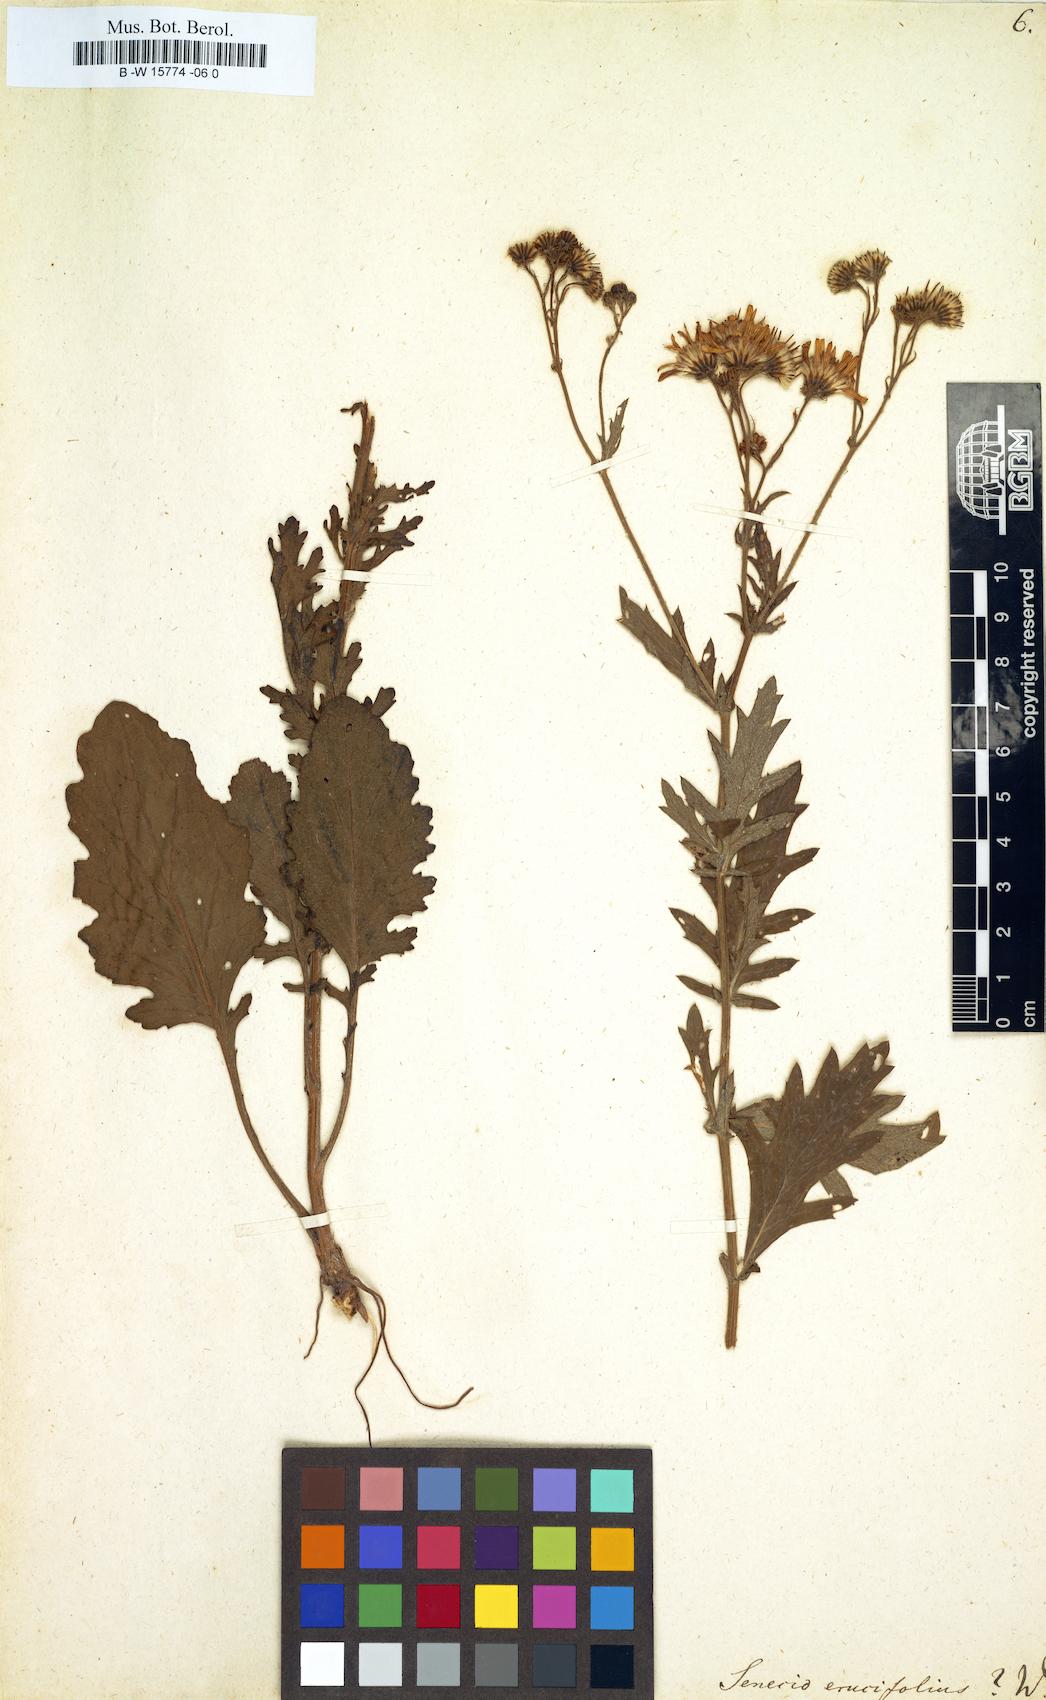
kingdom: Plantae
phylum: Tracheophyta
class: Magnoliopsida
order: Asterales
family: Asteraceae
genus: Jacobaea
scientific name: Jacobaea
